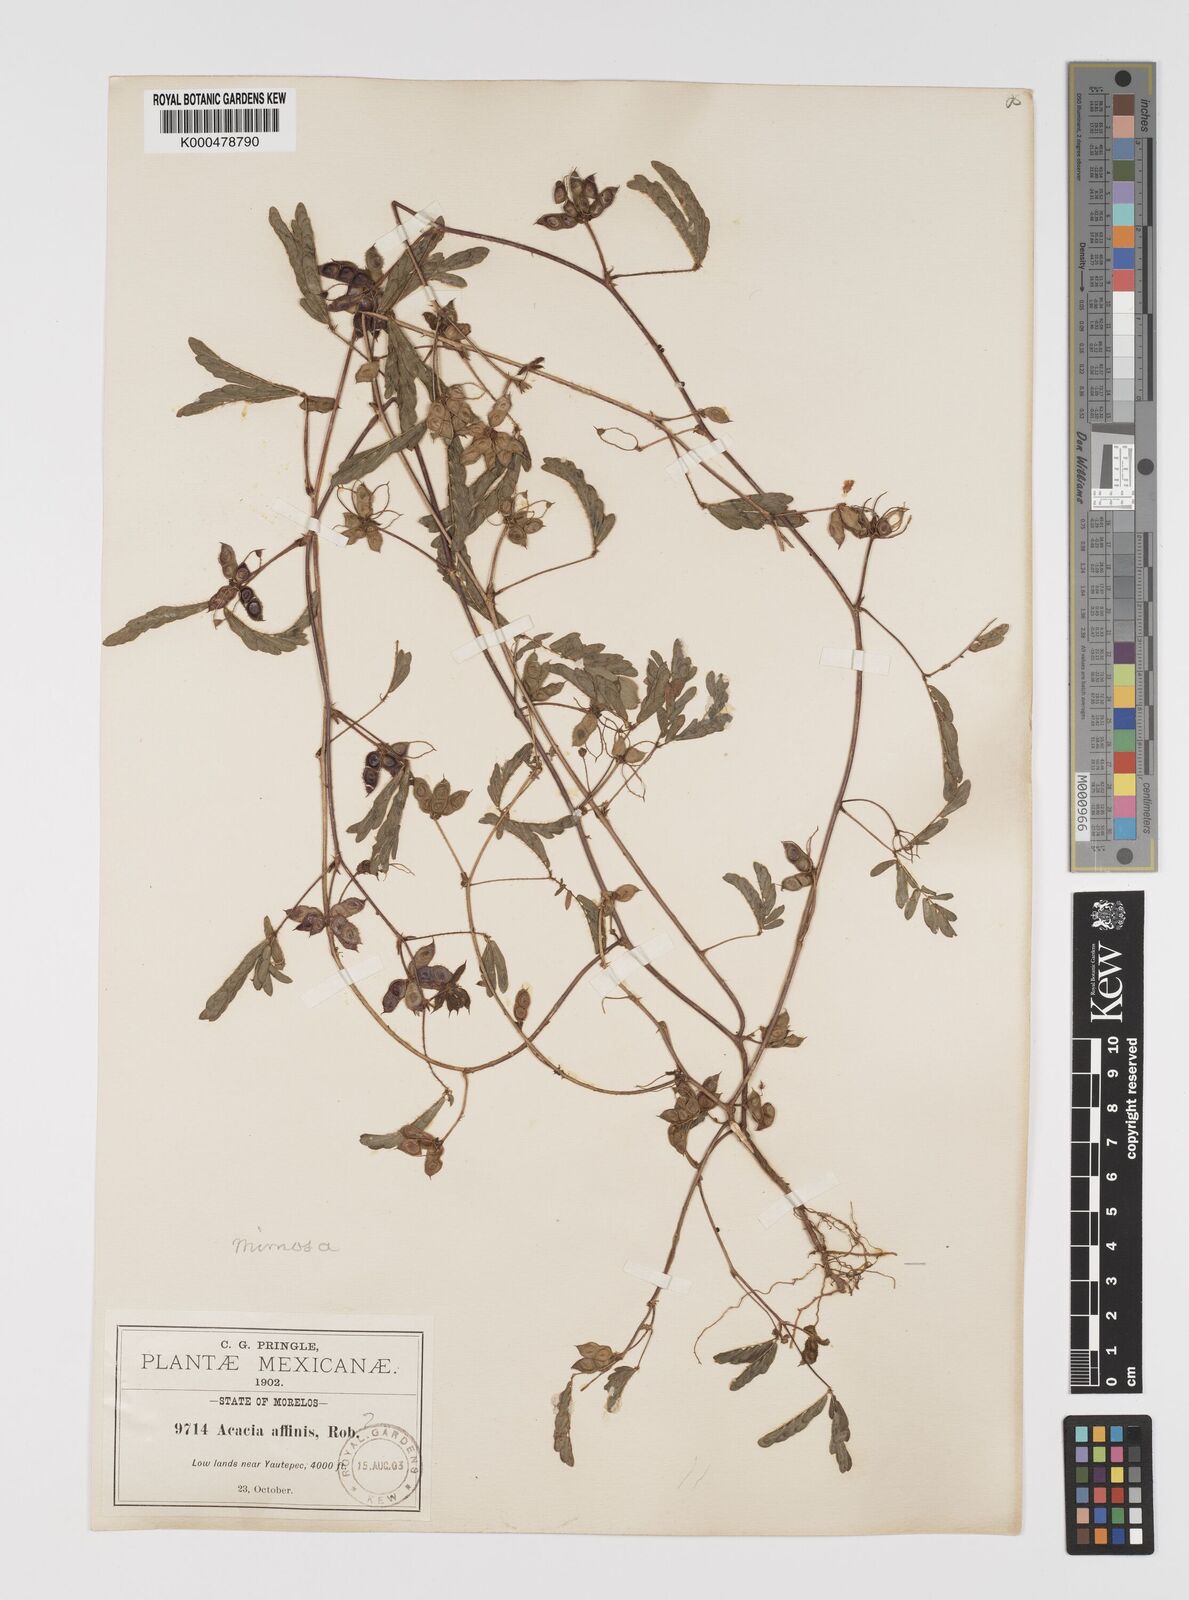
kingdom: Plantae
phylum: Tracheophyta
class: Magnoliopsida
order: Fabales
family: Fabaceae
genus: Mimosa
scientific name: Mimosa affinis
